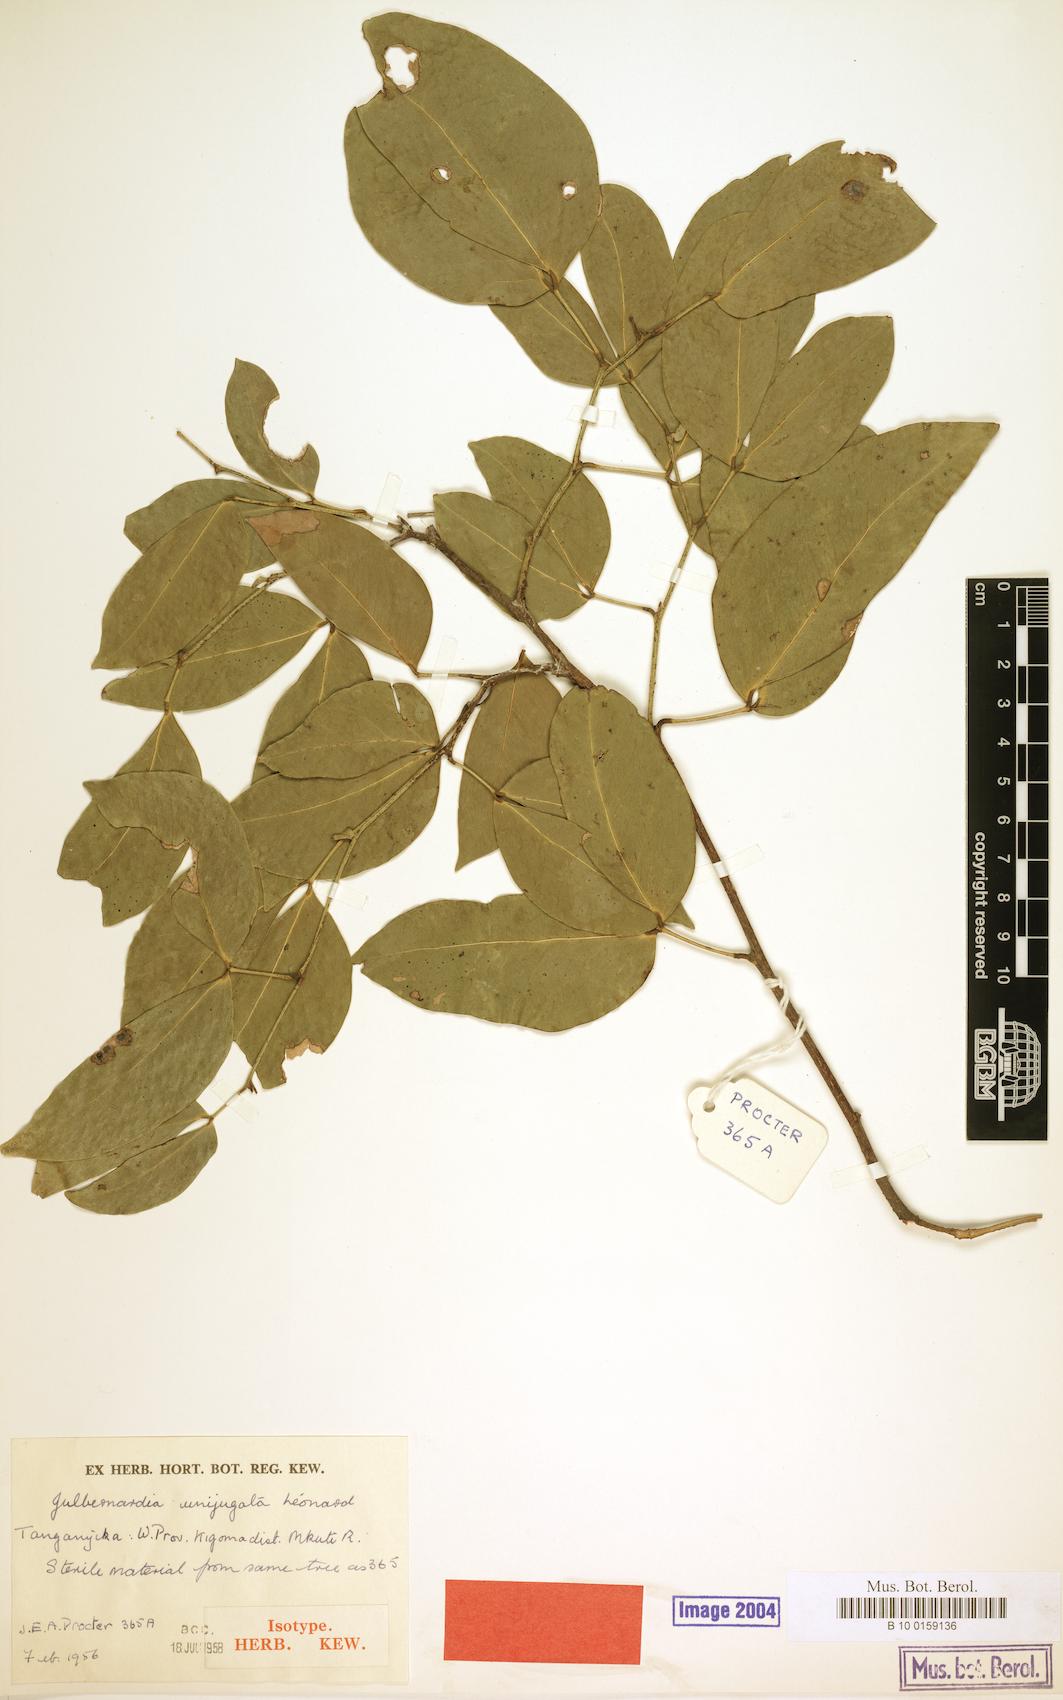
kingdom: Plantae
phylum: Tracheophyta
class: Magnoliopsida
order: Fabales
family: Fabaceae
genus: Julbernardia
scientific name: Julbernardia unijugata
